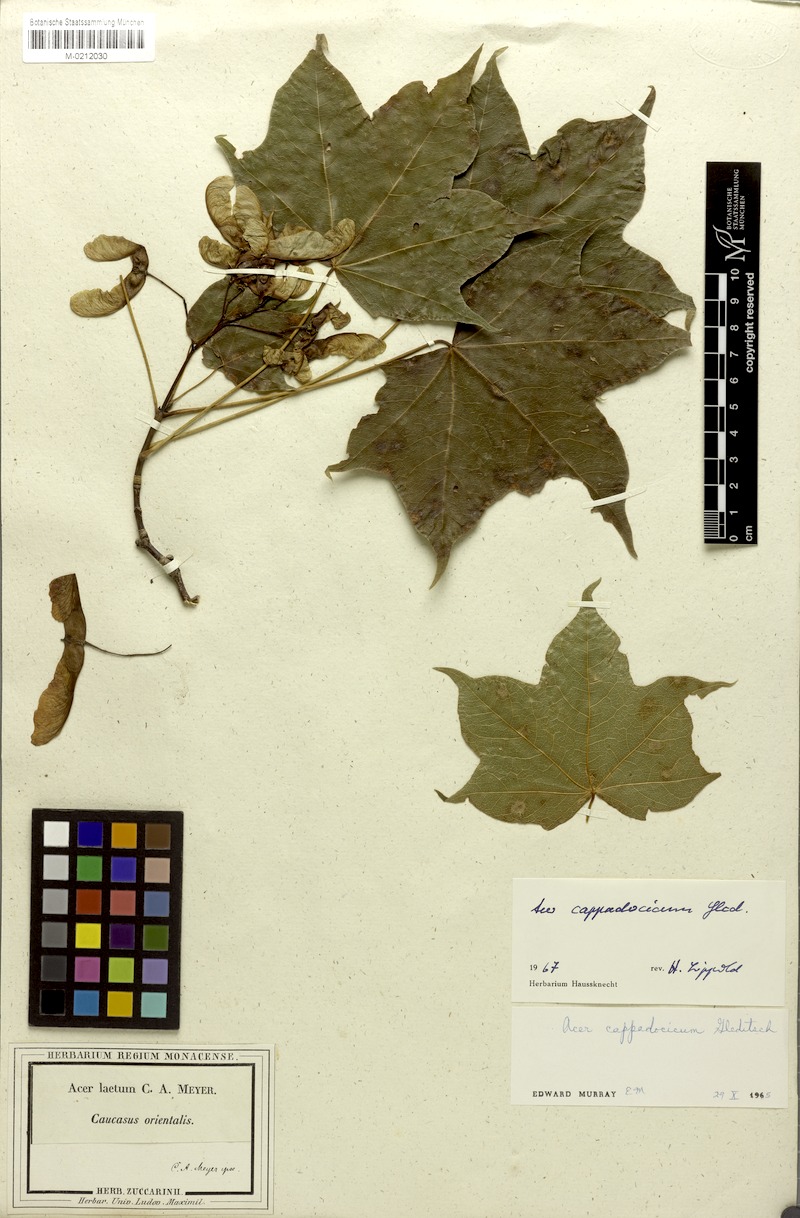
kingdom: Plantae
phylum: Tracheophyta
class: Magnoliopsida
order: Sapindales
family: Sapindaceae
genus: Acer
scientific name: Acer cappadocicum
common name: Cappadocian maple
